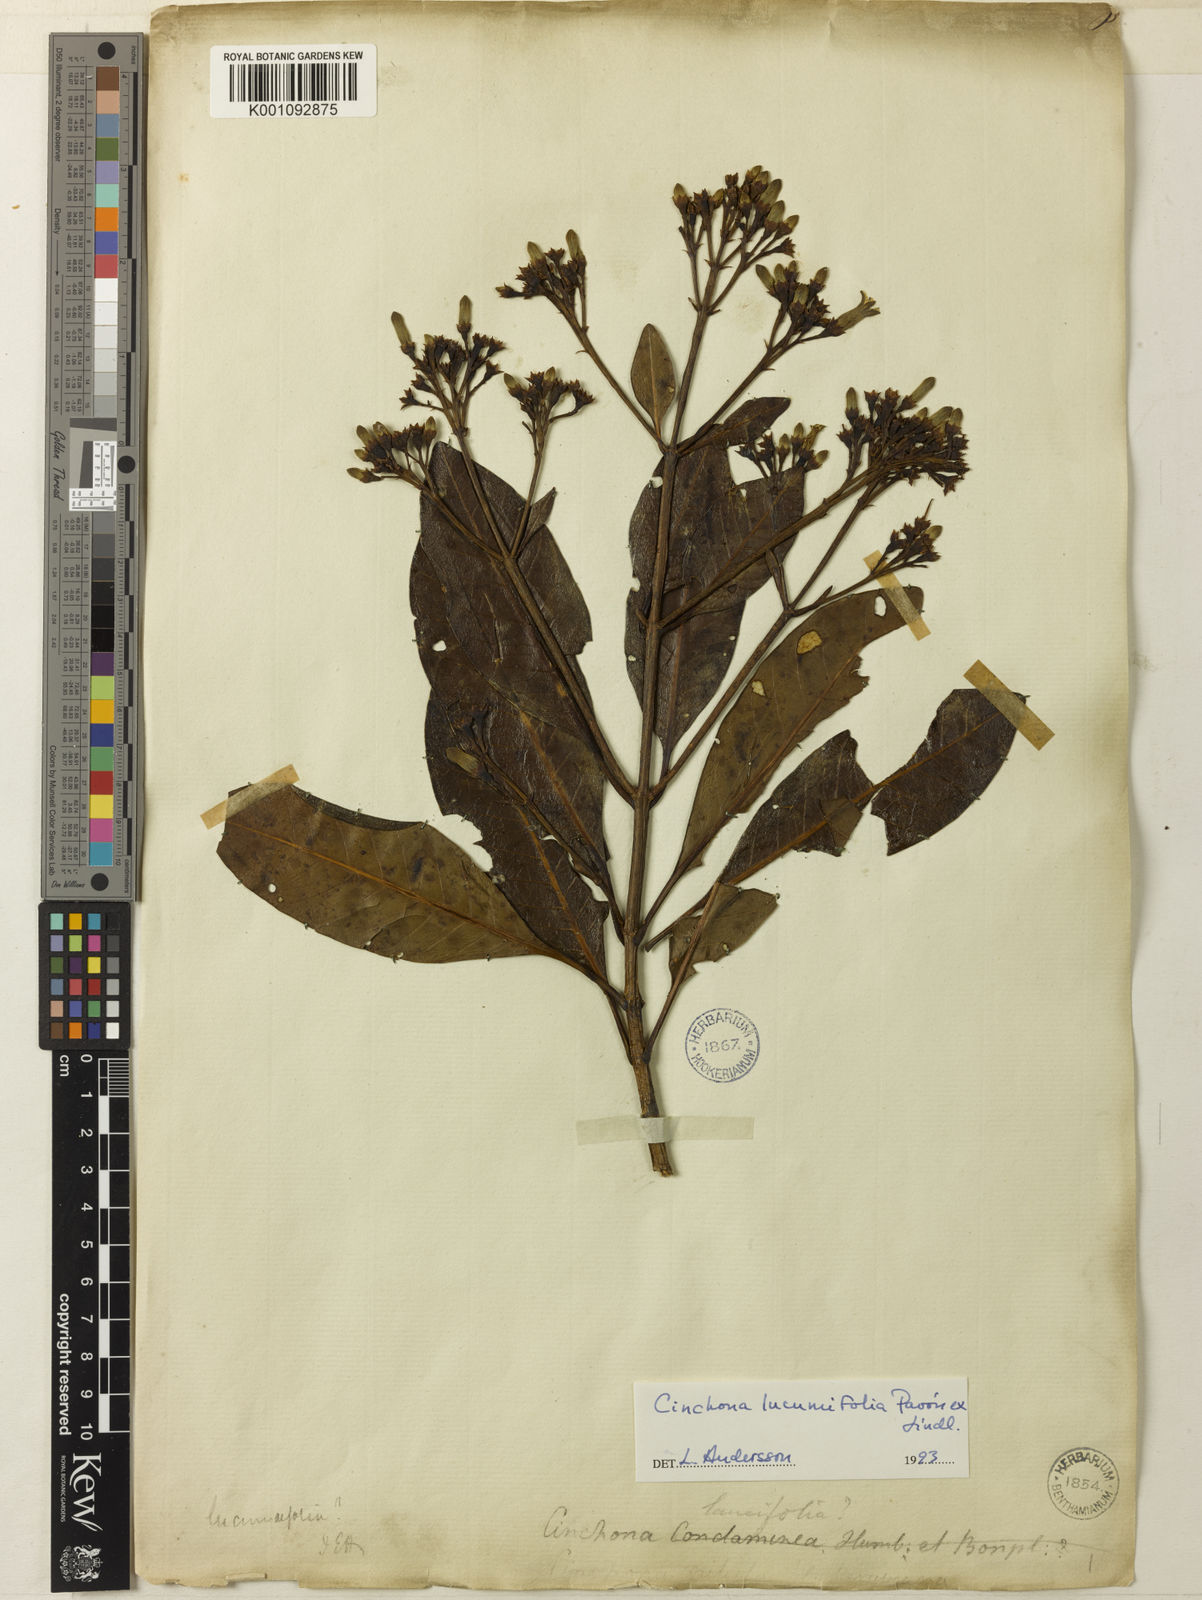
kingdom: Plantae
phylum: Tracheophyta
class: Magnoliopsida
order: Gentianales
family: Rubiaceae
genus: Cinchona
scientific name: Cinchona lucumifolia
